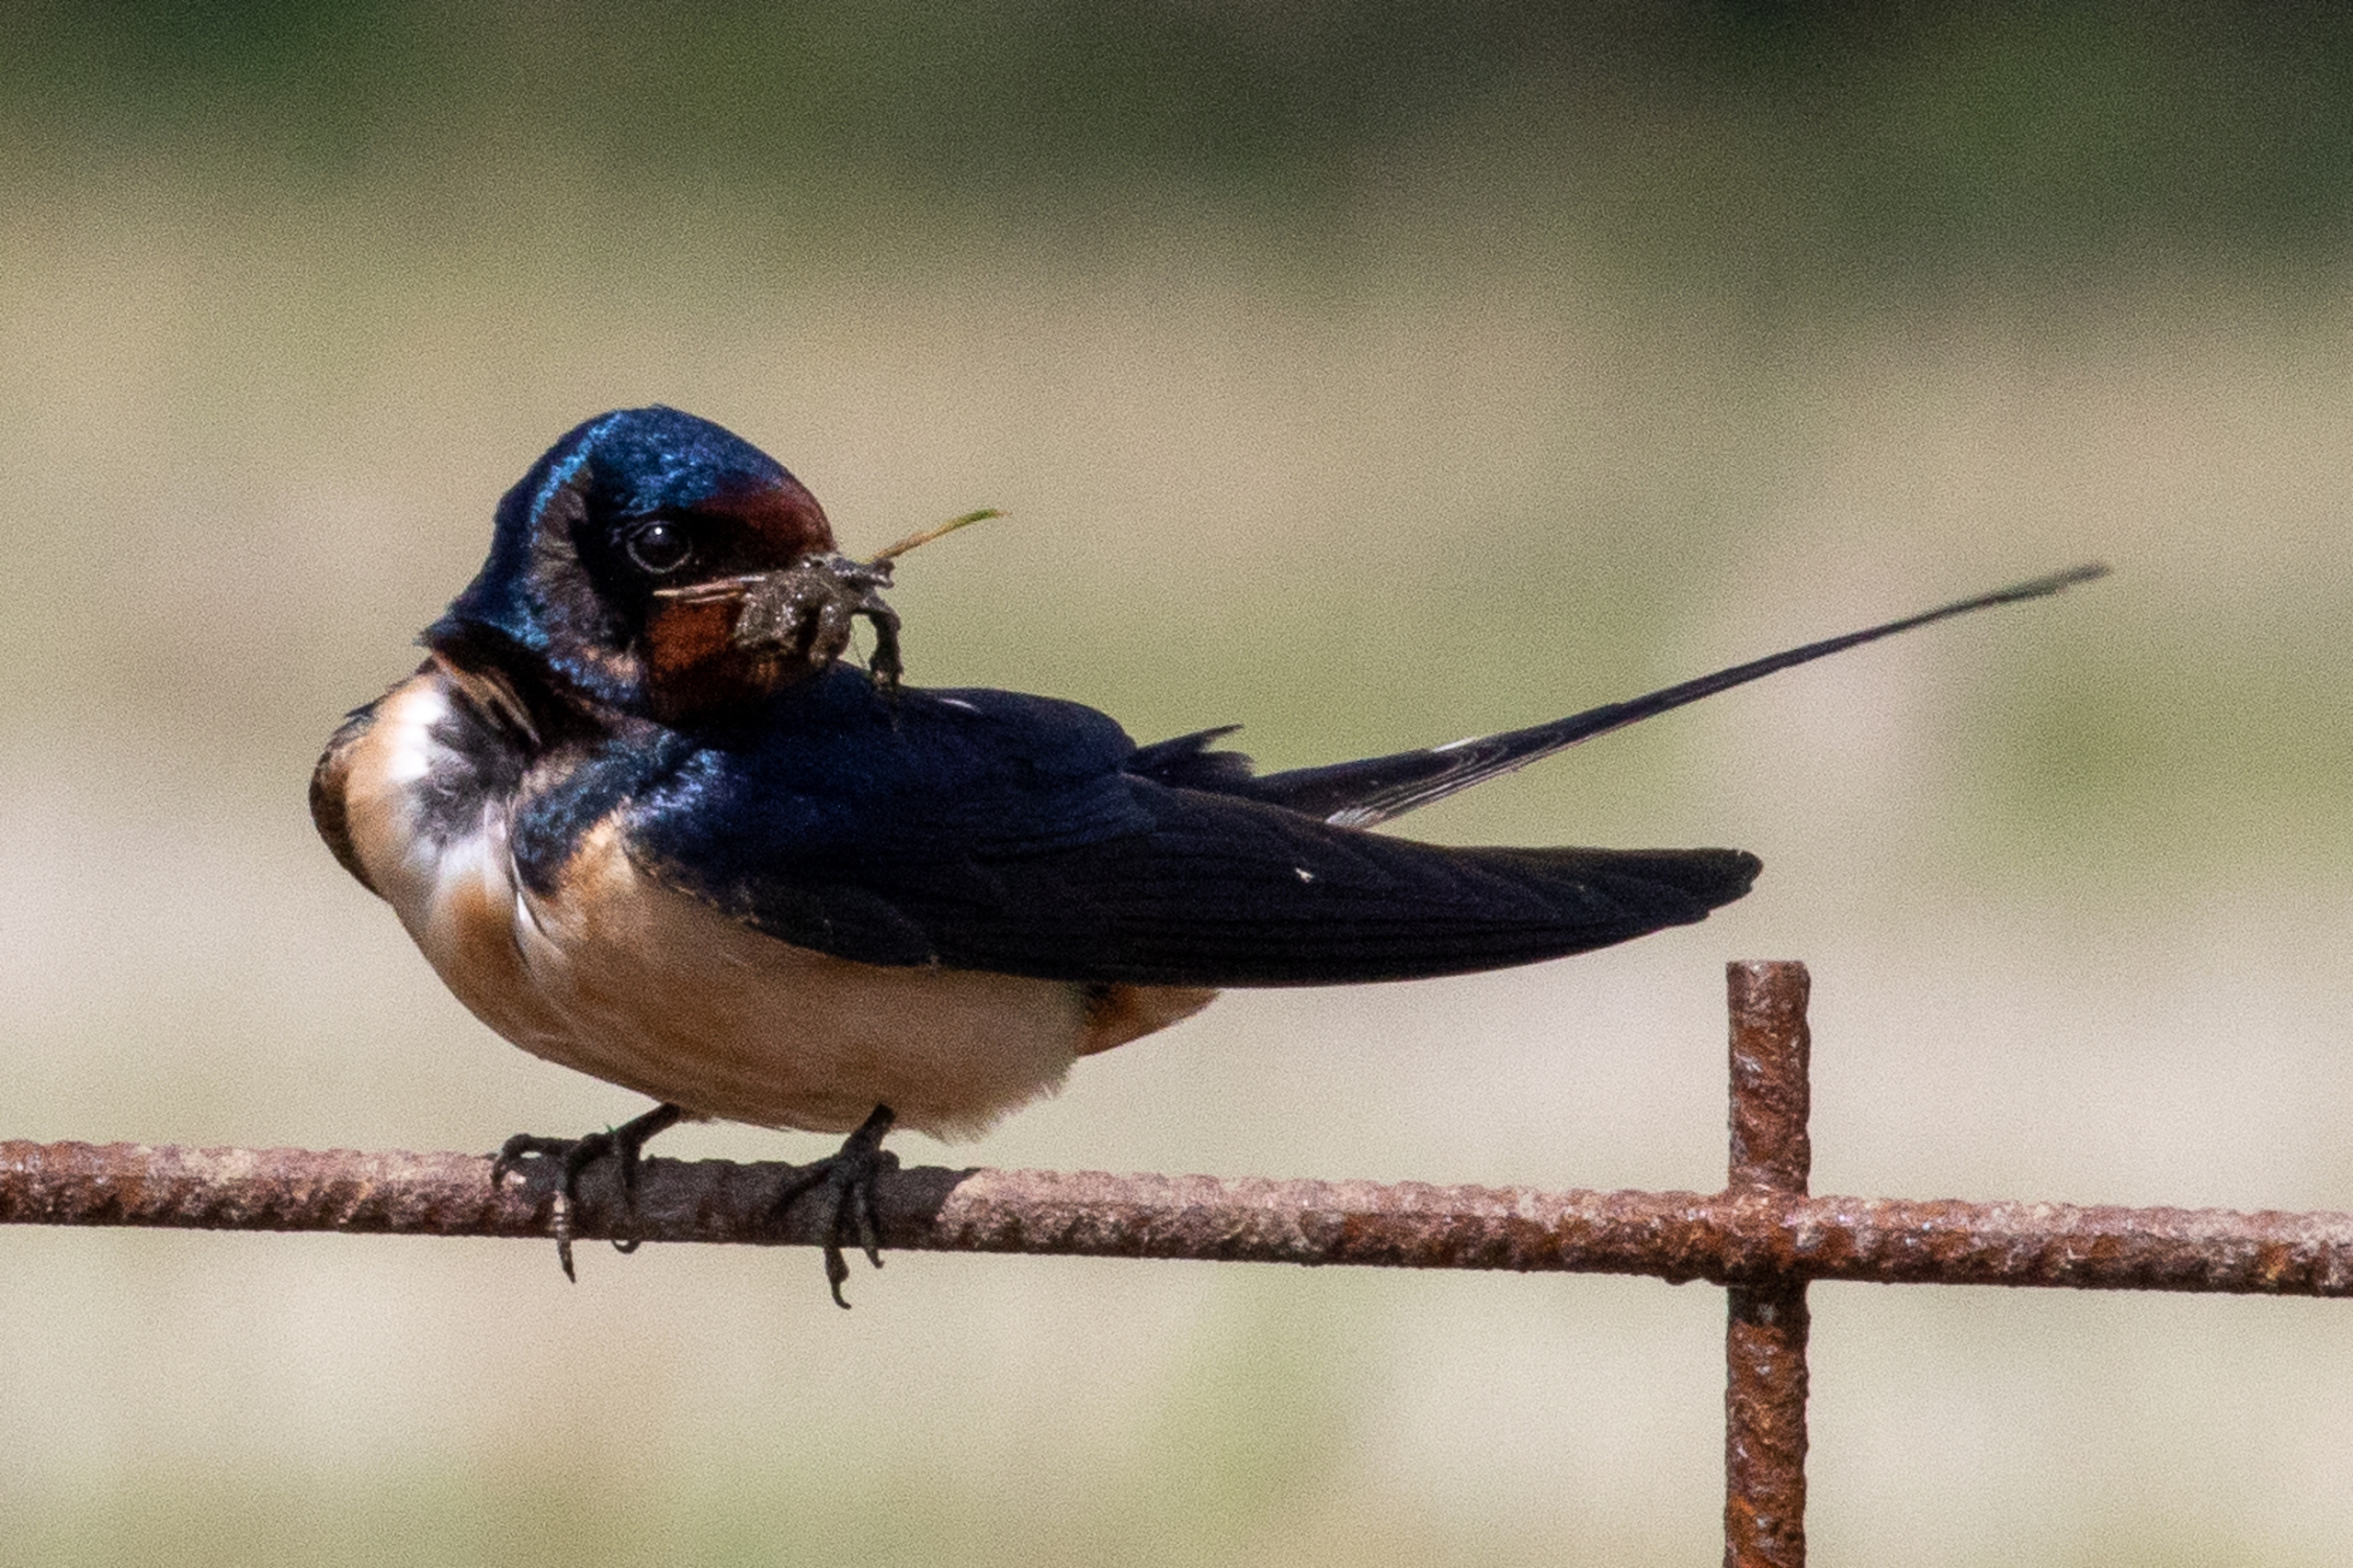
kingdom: Animalia
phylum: Chordata
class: Aves
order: Passeriformes
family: Hirundinidae
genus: Hirundo
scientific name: Hirundo rustica
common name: Landsvale
